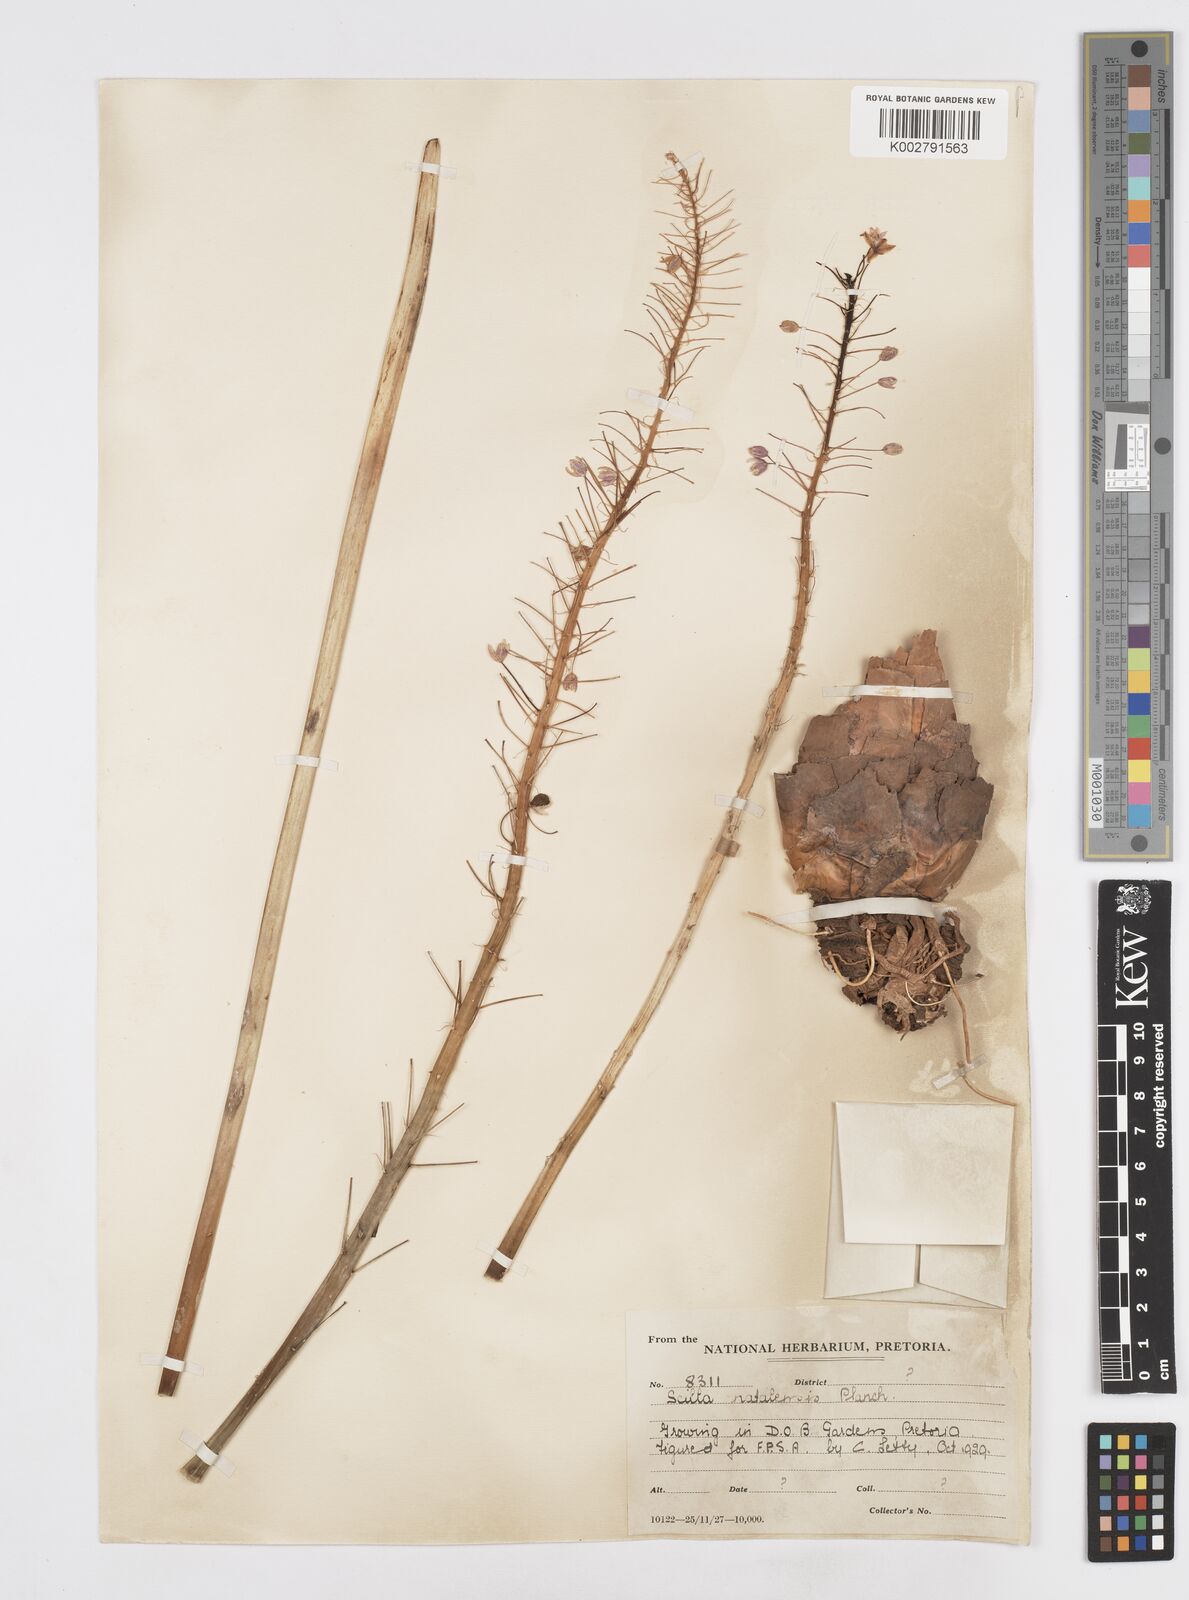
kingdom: Plantae
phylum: Tracheophyta
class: Liliopsida
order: Asparagales
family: Asparagaceae
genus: Merwilla
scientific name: Merwilla plumbea
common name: Blue-squill
